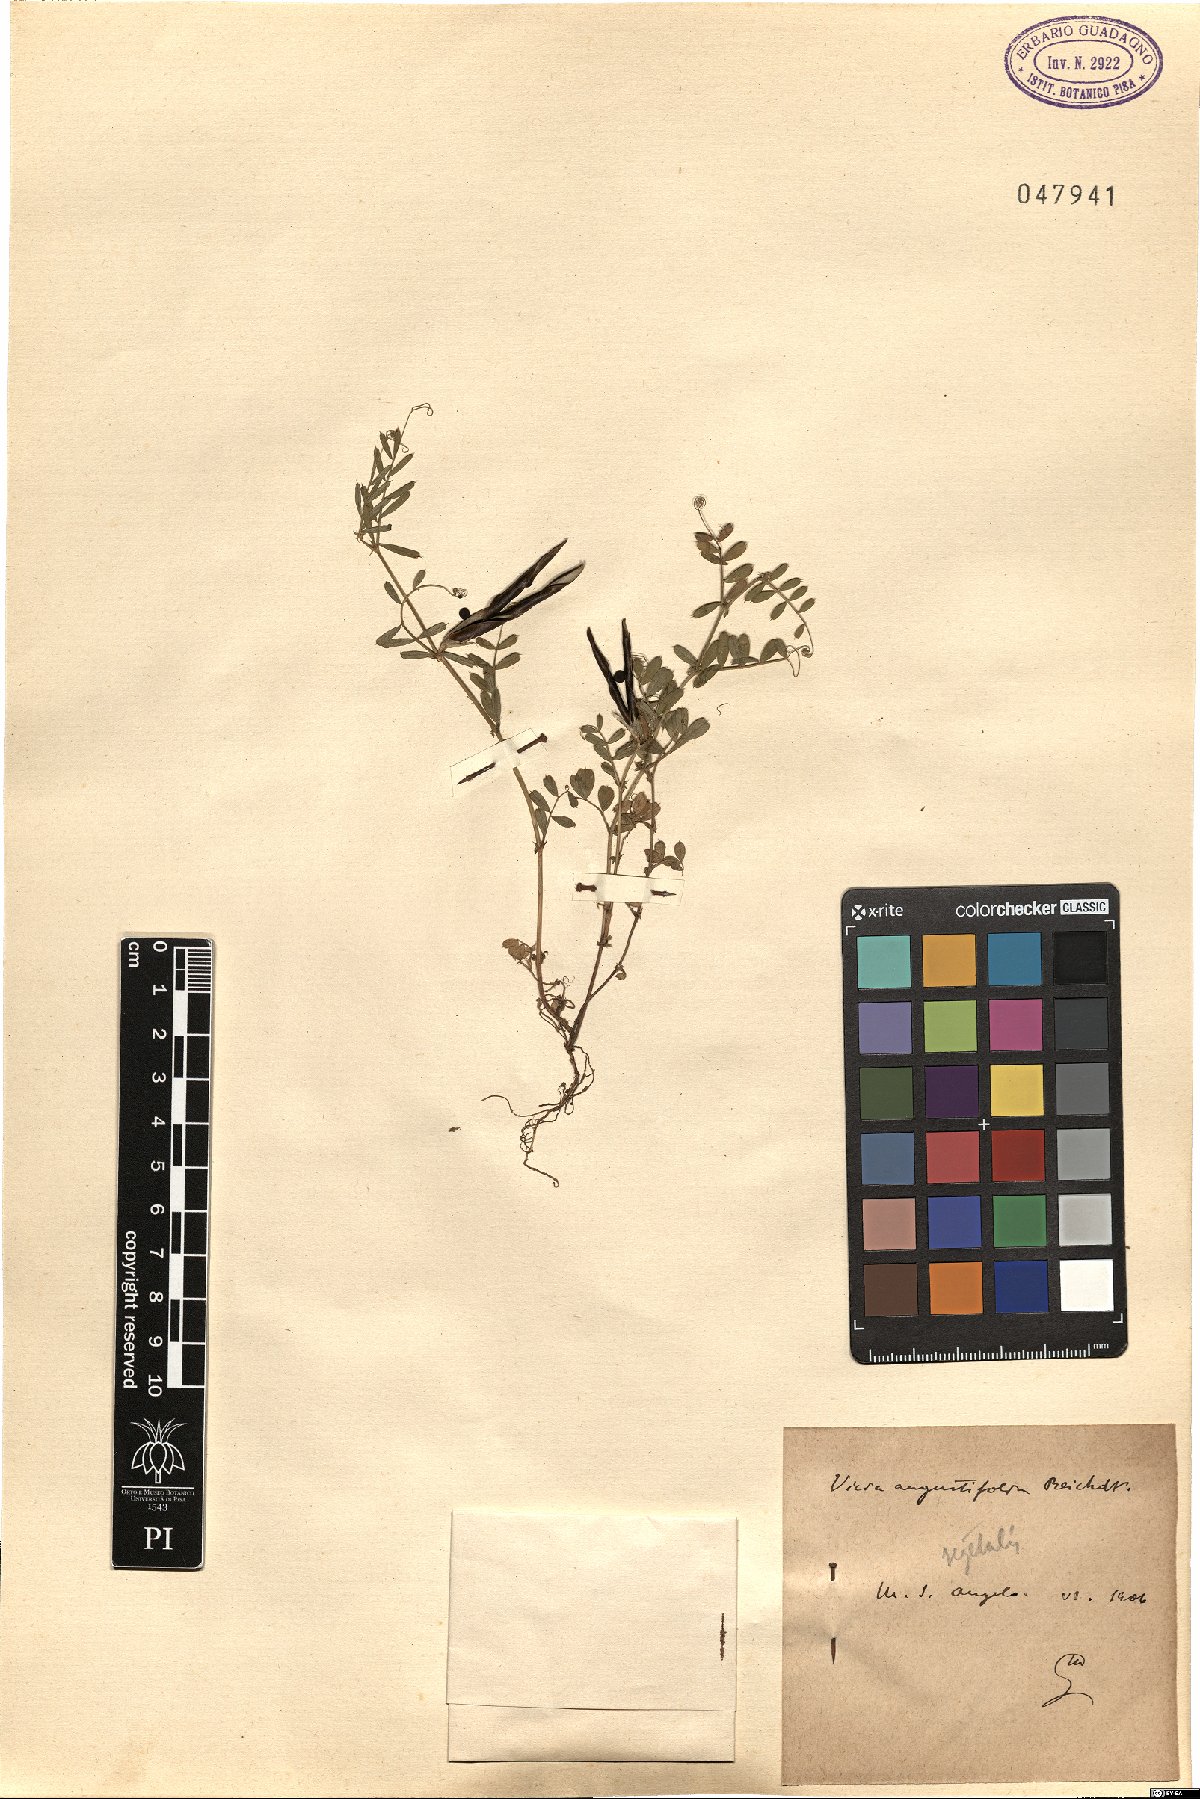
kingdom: Plantae
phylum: Tracheophyta
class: Magnoliopsida
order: Fabales
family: Fabaceae
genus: Vicia
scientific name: Vicia sativa
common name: Garden vetch
